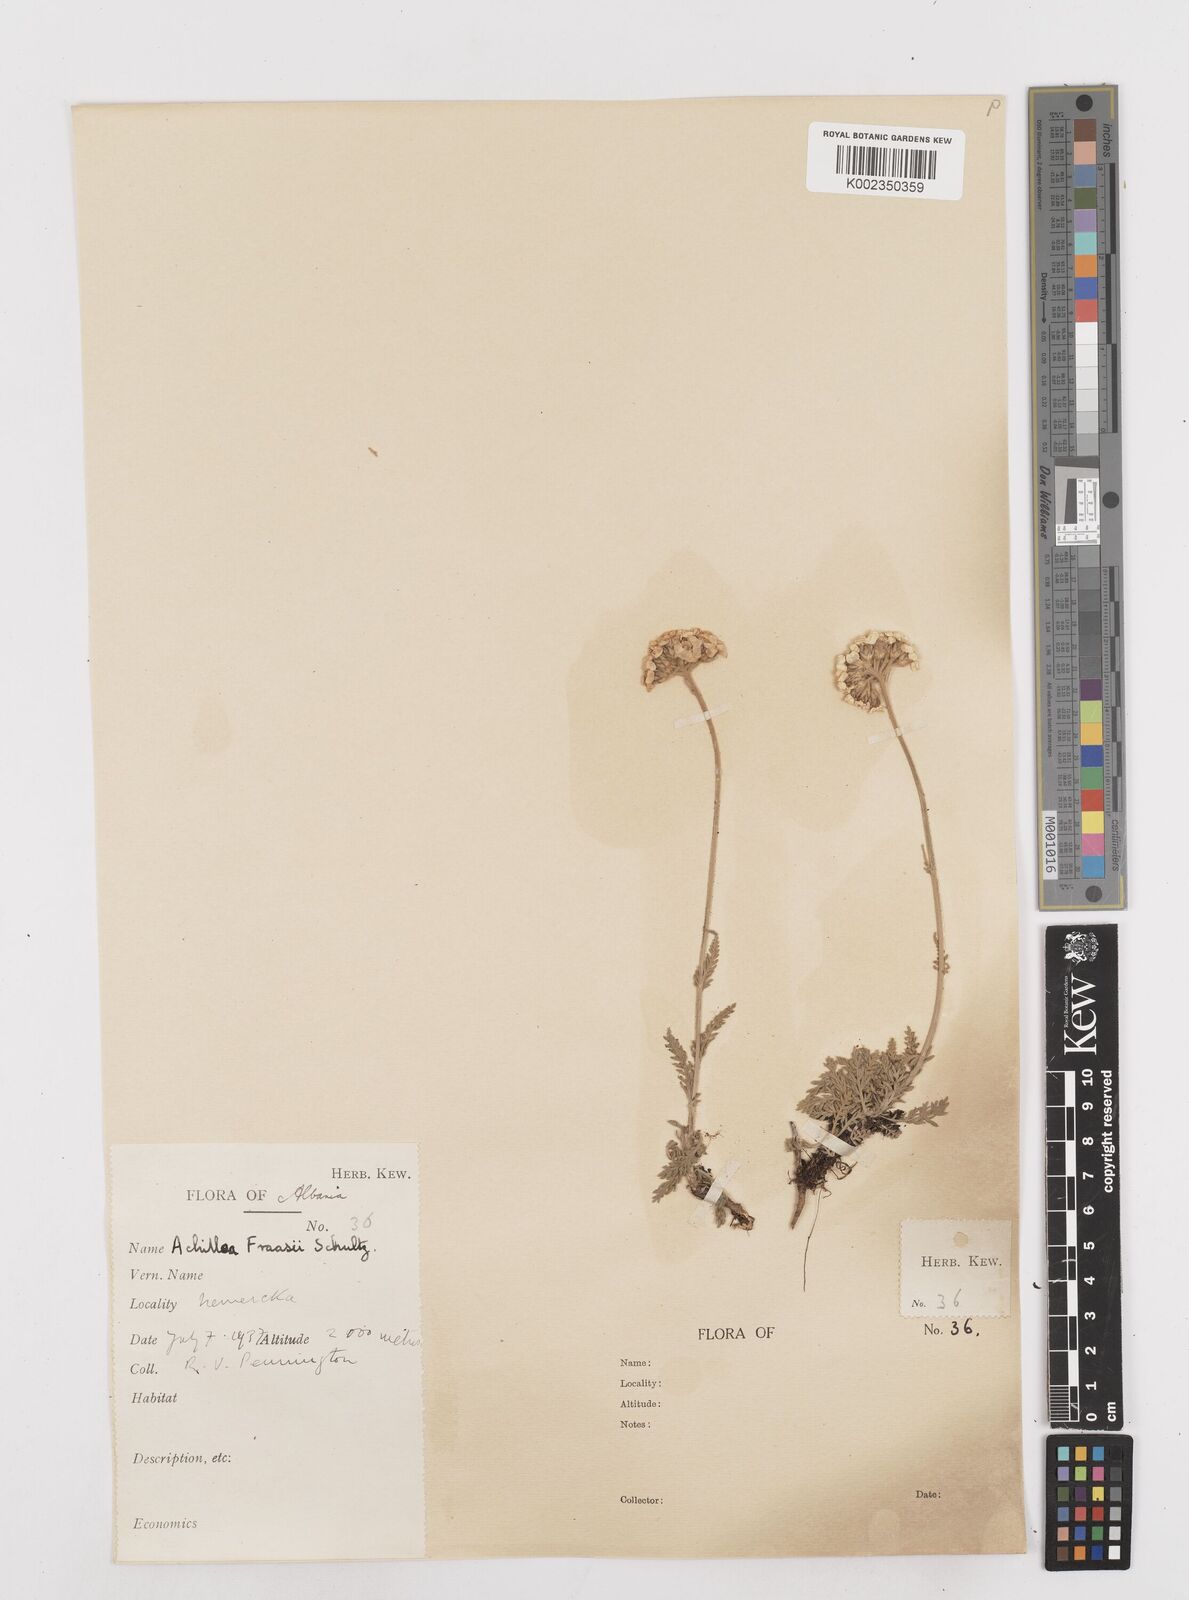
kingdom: Plantae
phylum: Tracheophyta
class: Magnoliopsida
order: Asterales
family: Asteraceae
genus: Achillea
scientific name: Achillea fraasii
